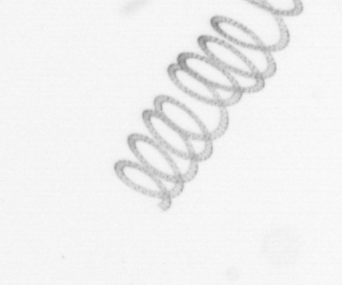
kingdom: Chromista
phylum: Ochrophyta
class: Bacillariophyceae
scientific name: Bacillariophyceae
